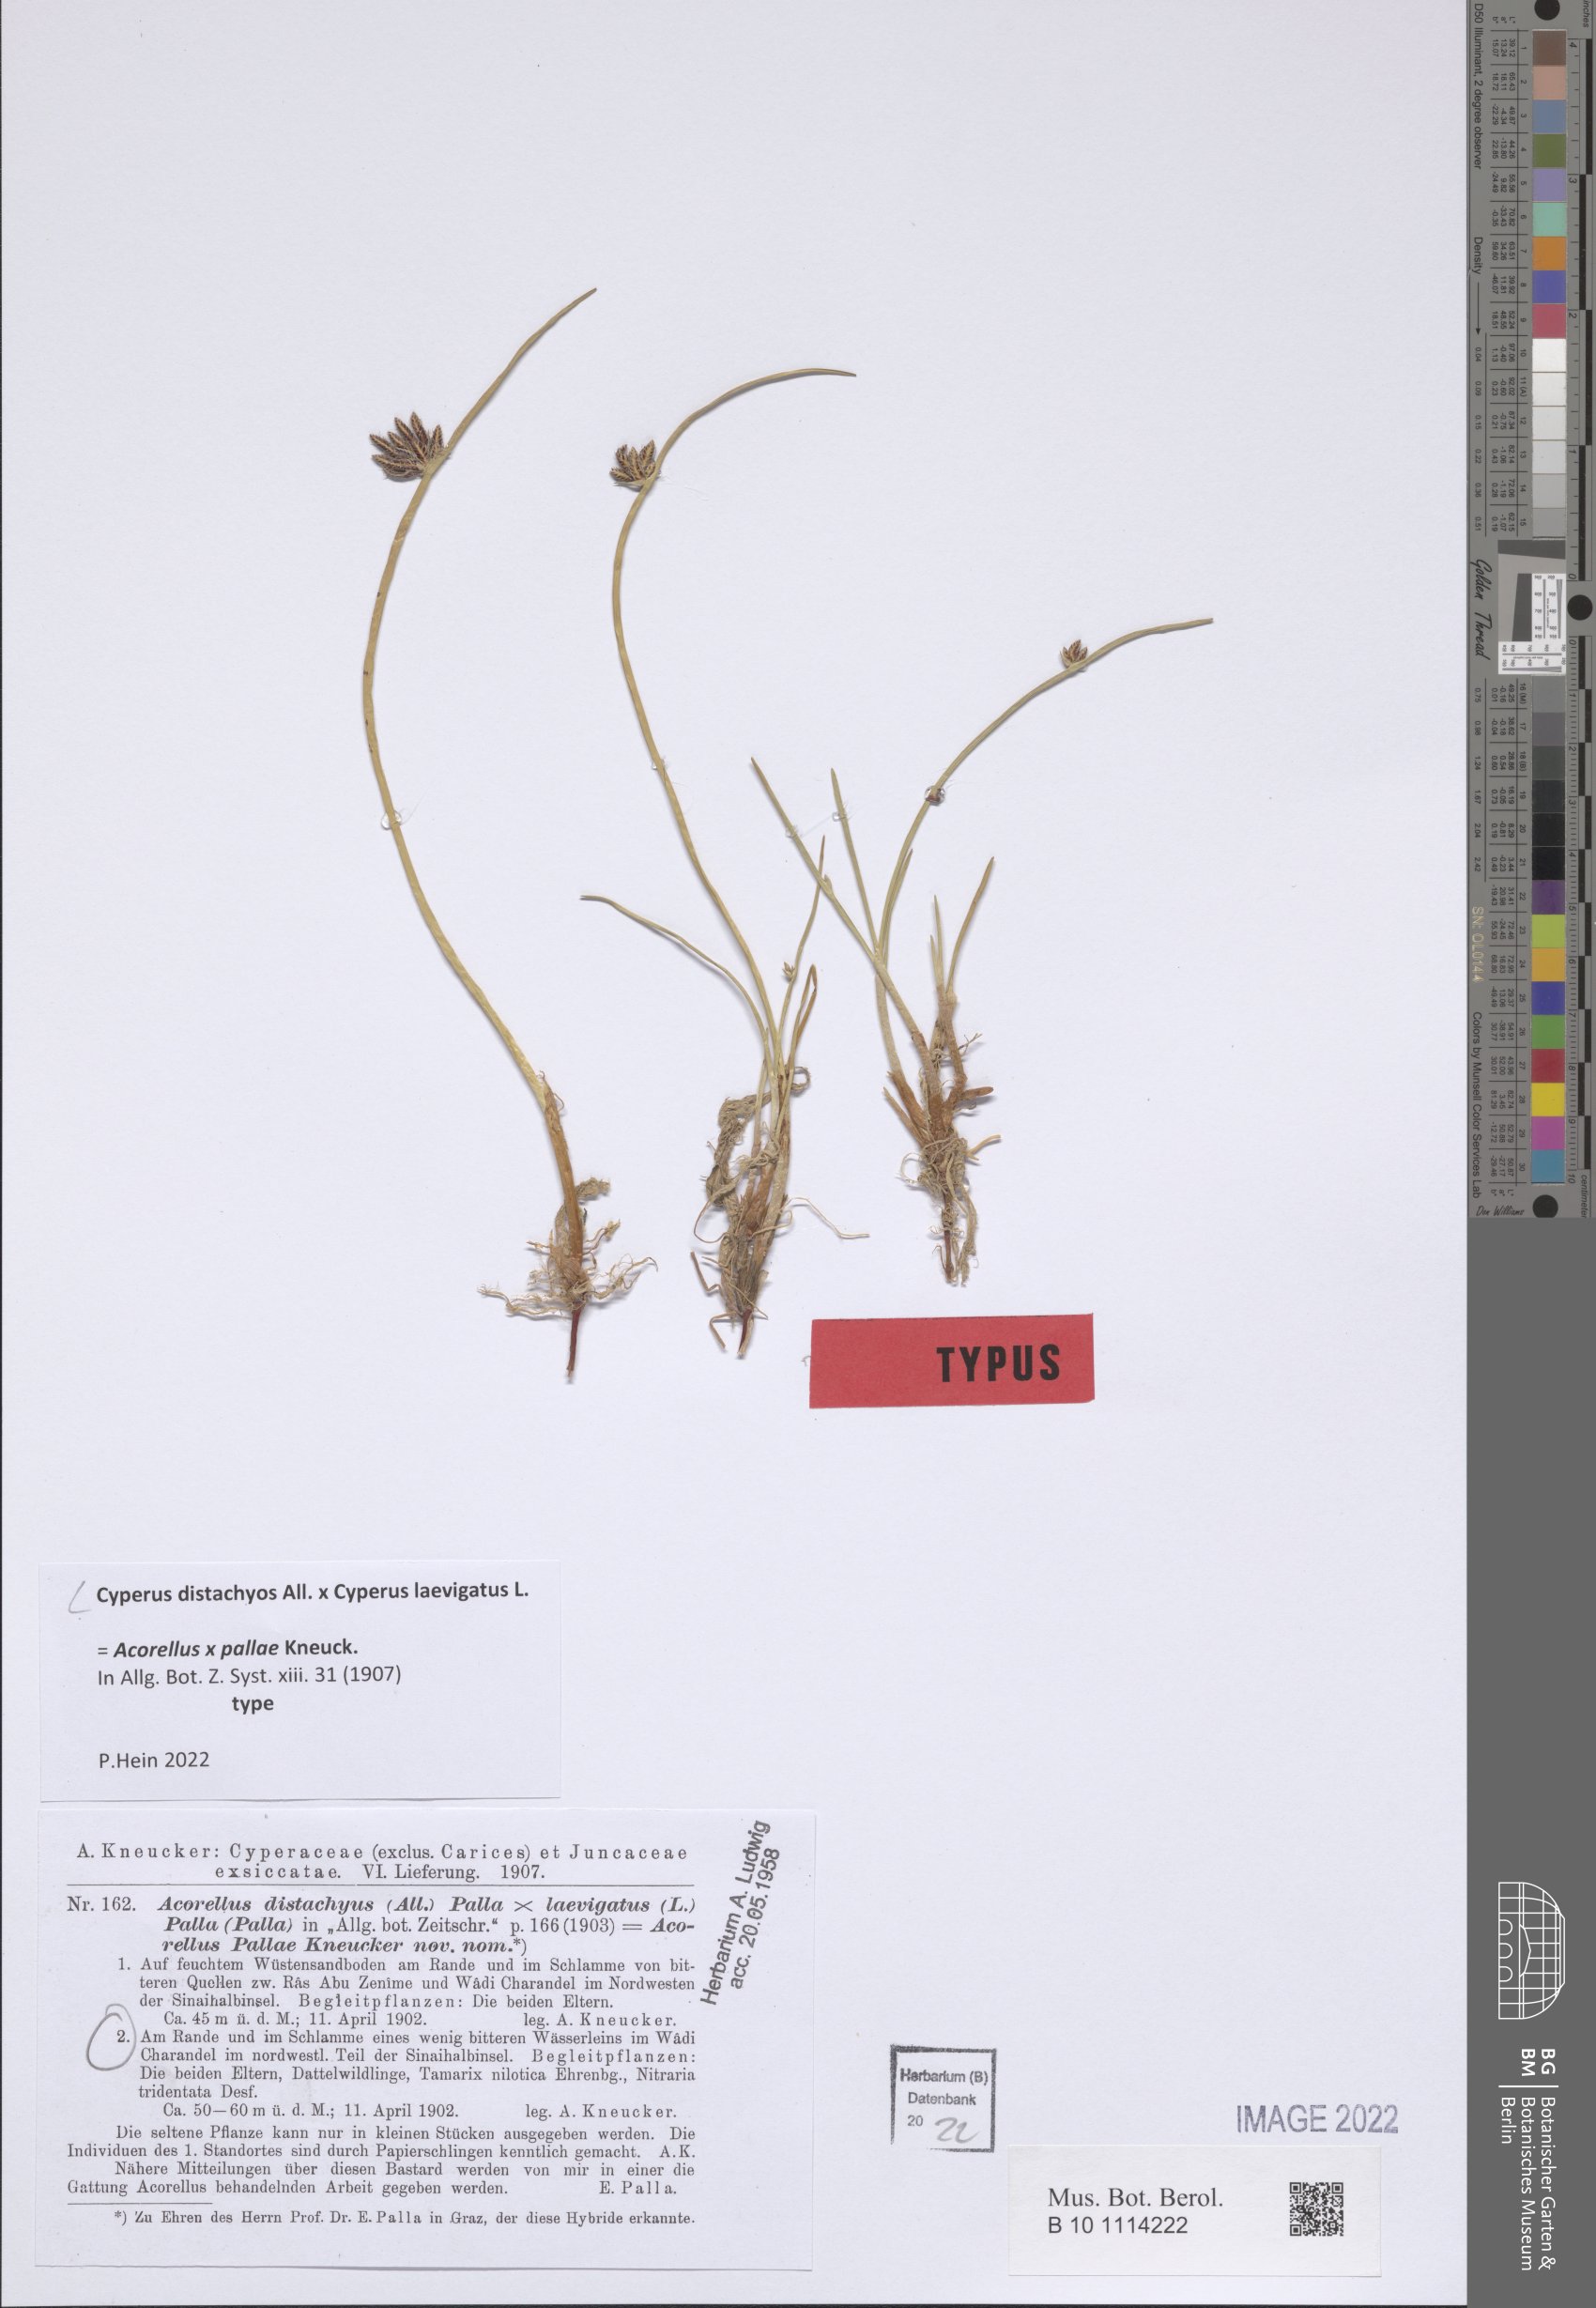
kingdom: Plantae
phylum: Tracheophyta
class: Liliopsida
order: Poales
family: Cyperaceae
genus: Cyperus
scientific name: Cyperus laevigatus
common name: Smooth flat sedge
